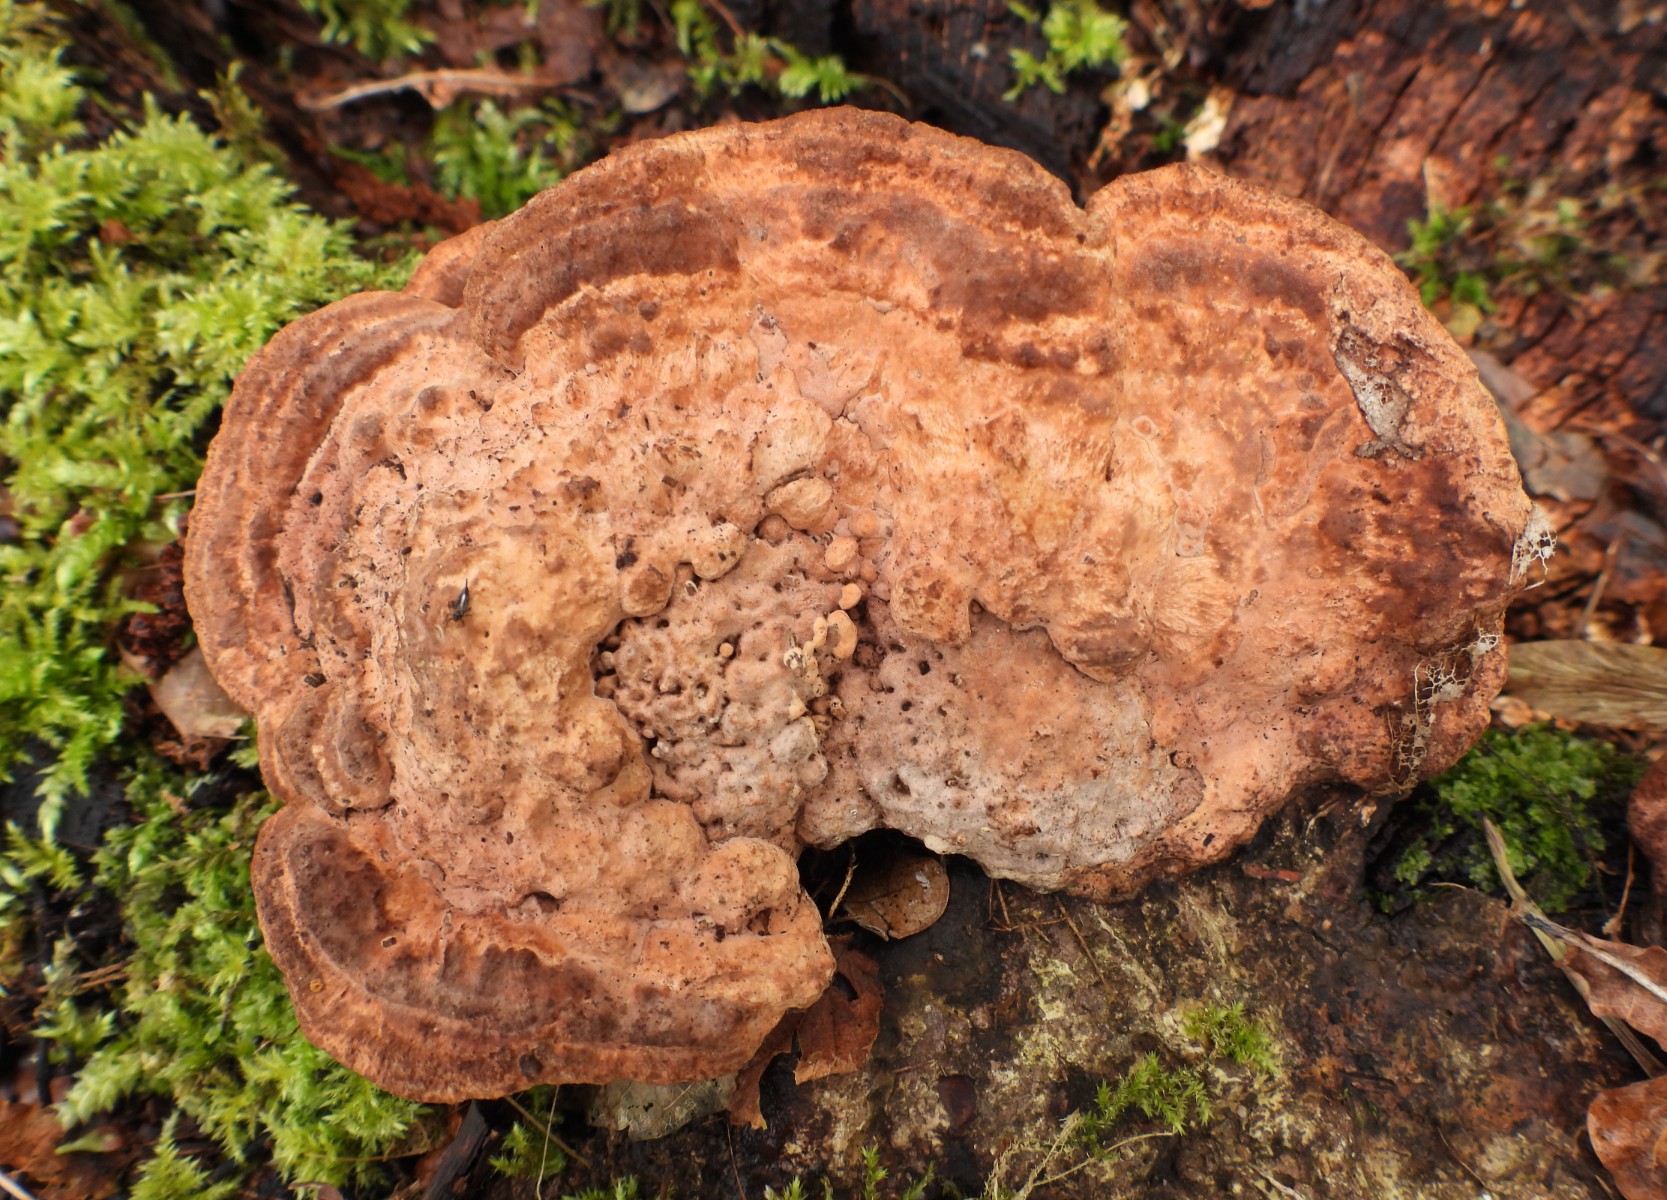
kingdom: Fungi
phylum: Basidiomycota
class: Agaricomycetes
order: Polyporales
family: Fomitopsidaceae
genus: Daedalea
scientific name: Daedalea quercina
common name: ege-labyrintsvamp
